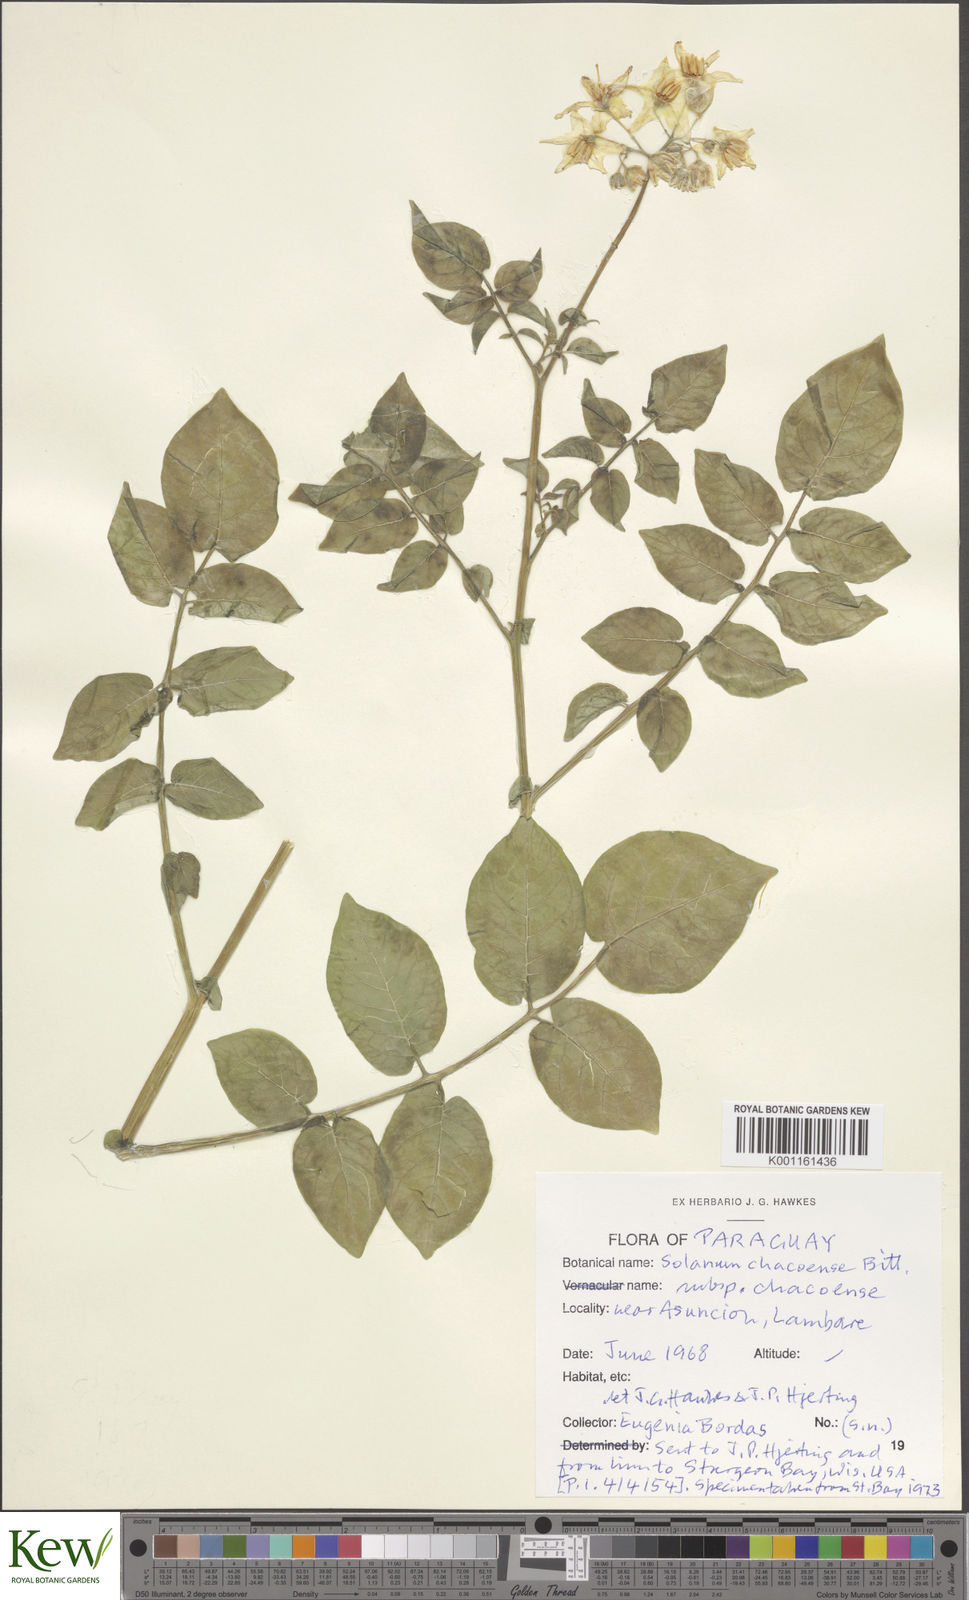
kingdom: Plantae
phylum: Tracheophyta
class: Magnoliopsida
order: Solanales
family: Solanaceae
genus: Solanum
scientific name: Solanum chacoense
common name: Chaco potato
